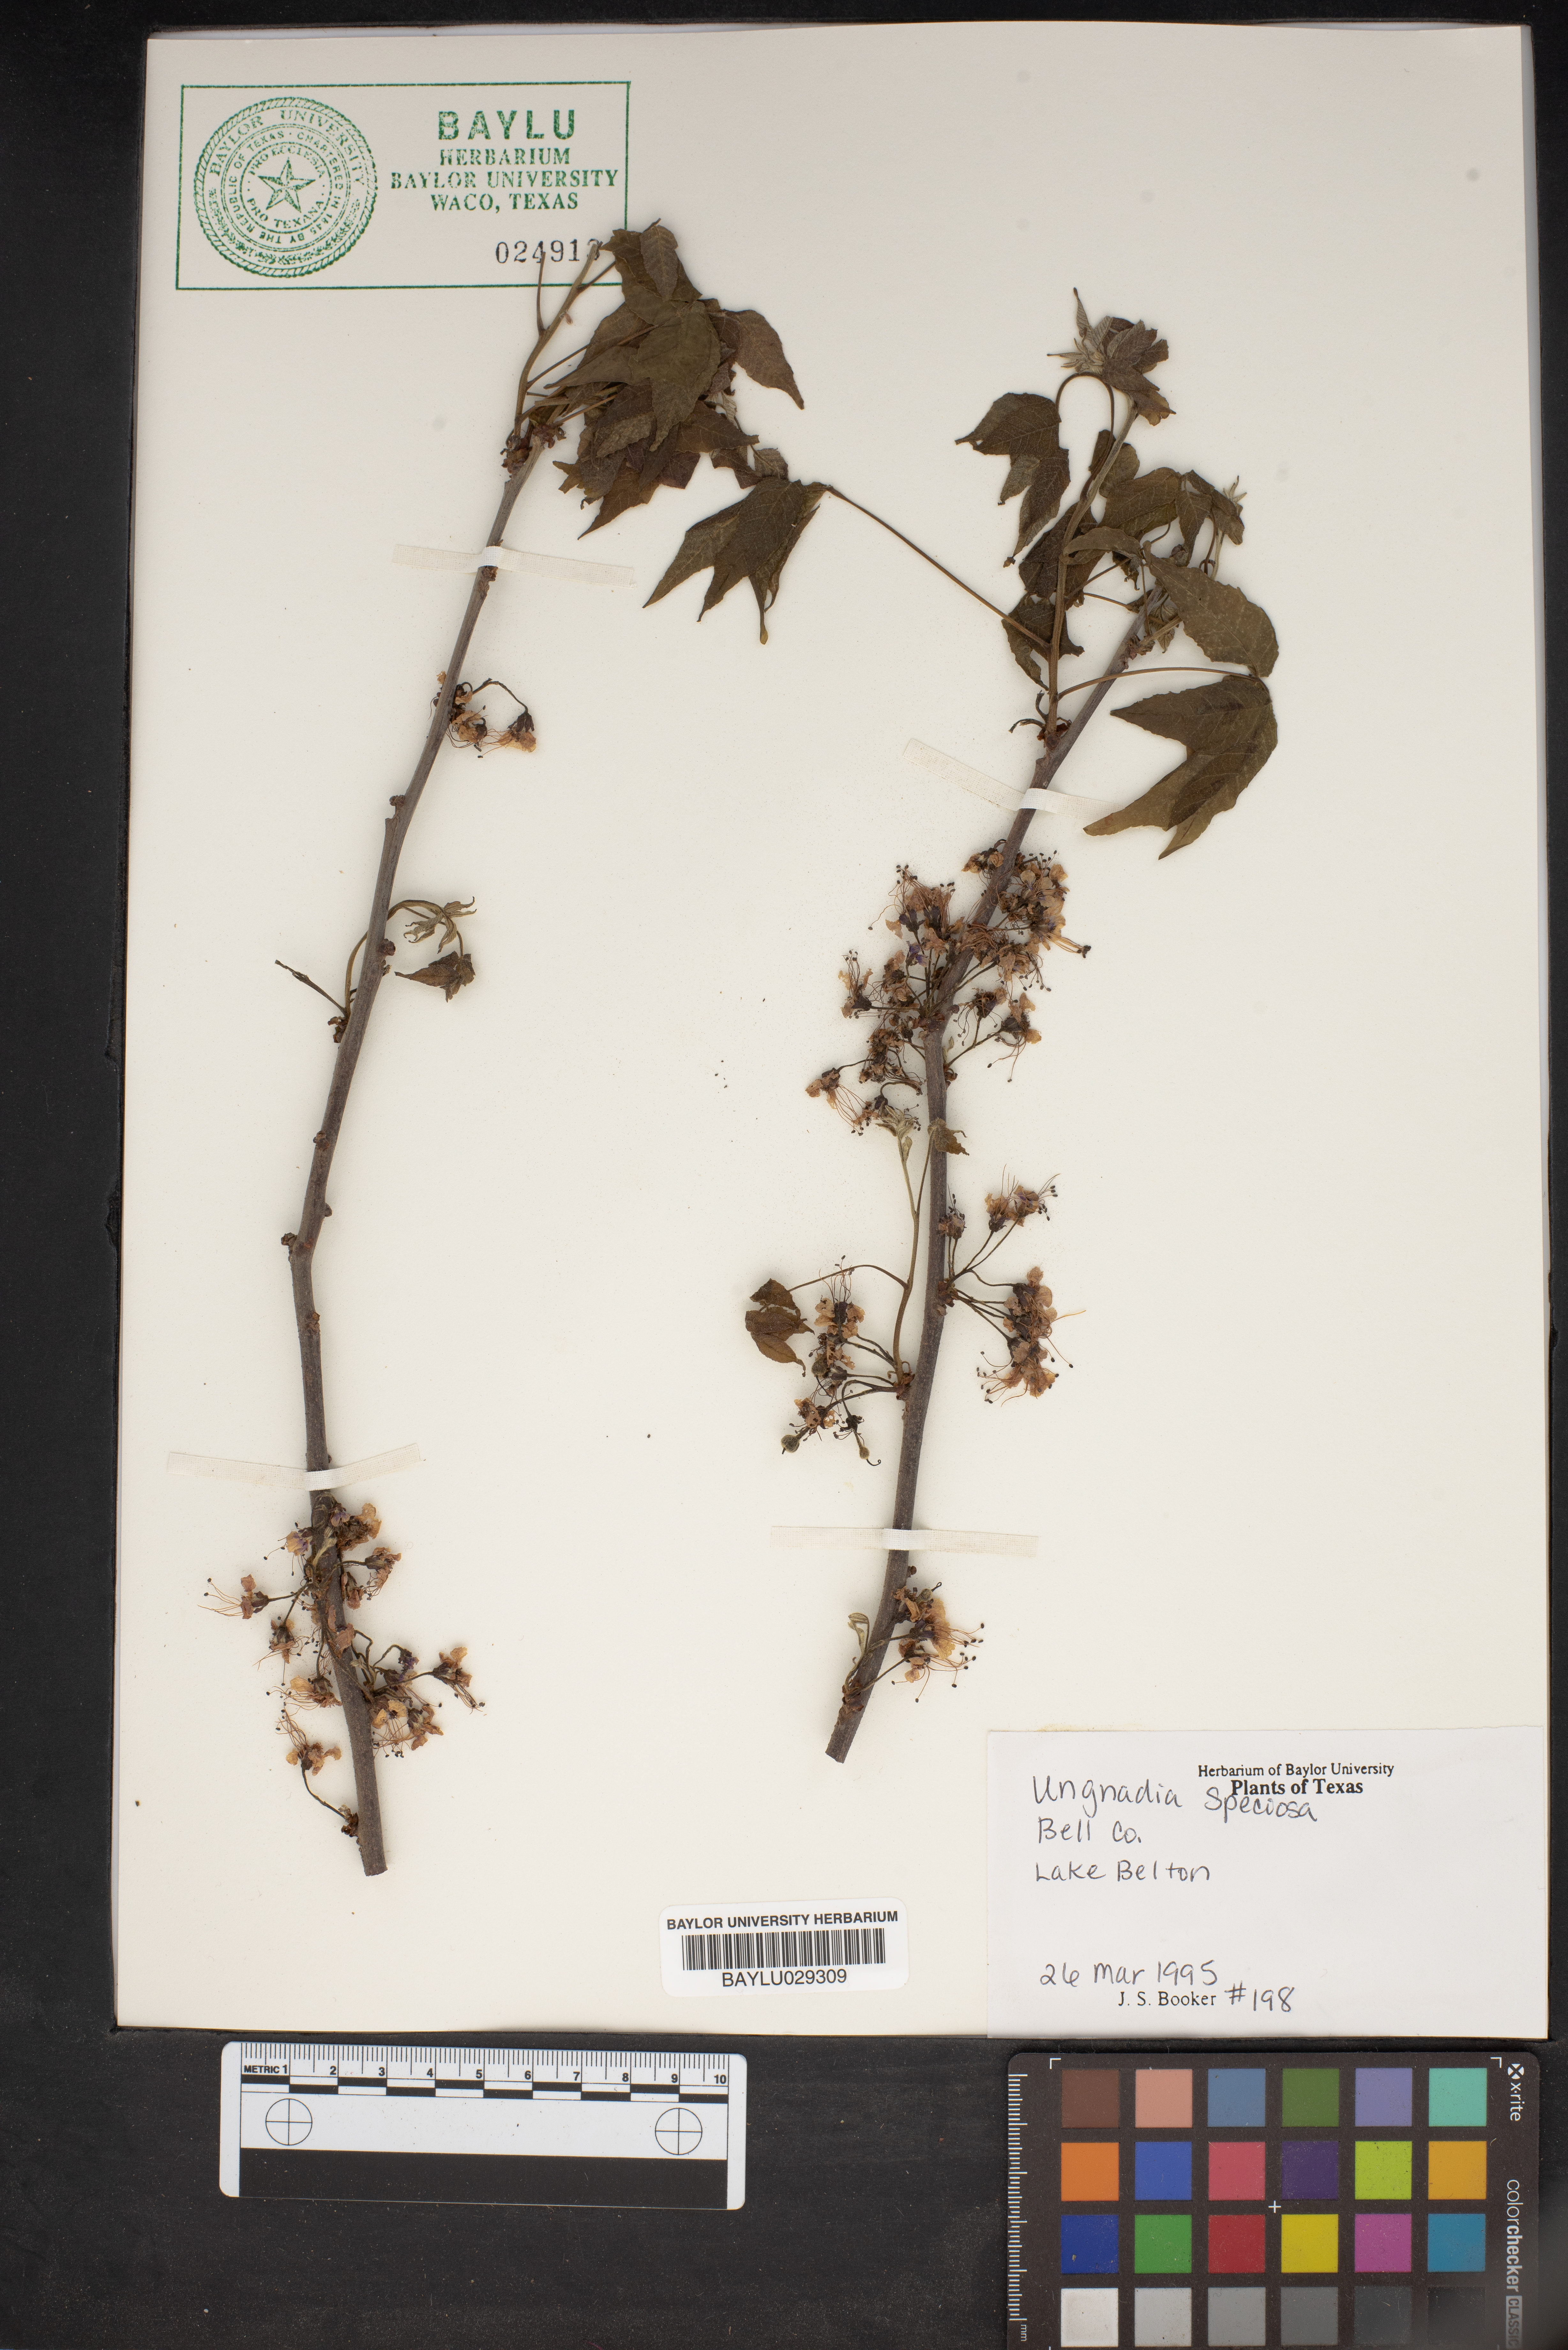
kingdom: Plantae
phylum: Tracheophyta
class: Magnoliopsida
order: Sapindales
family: Sapindaceae
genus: Ungnadia
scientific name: Ungnadia speciosa
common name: Texas-buckeye
